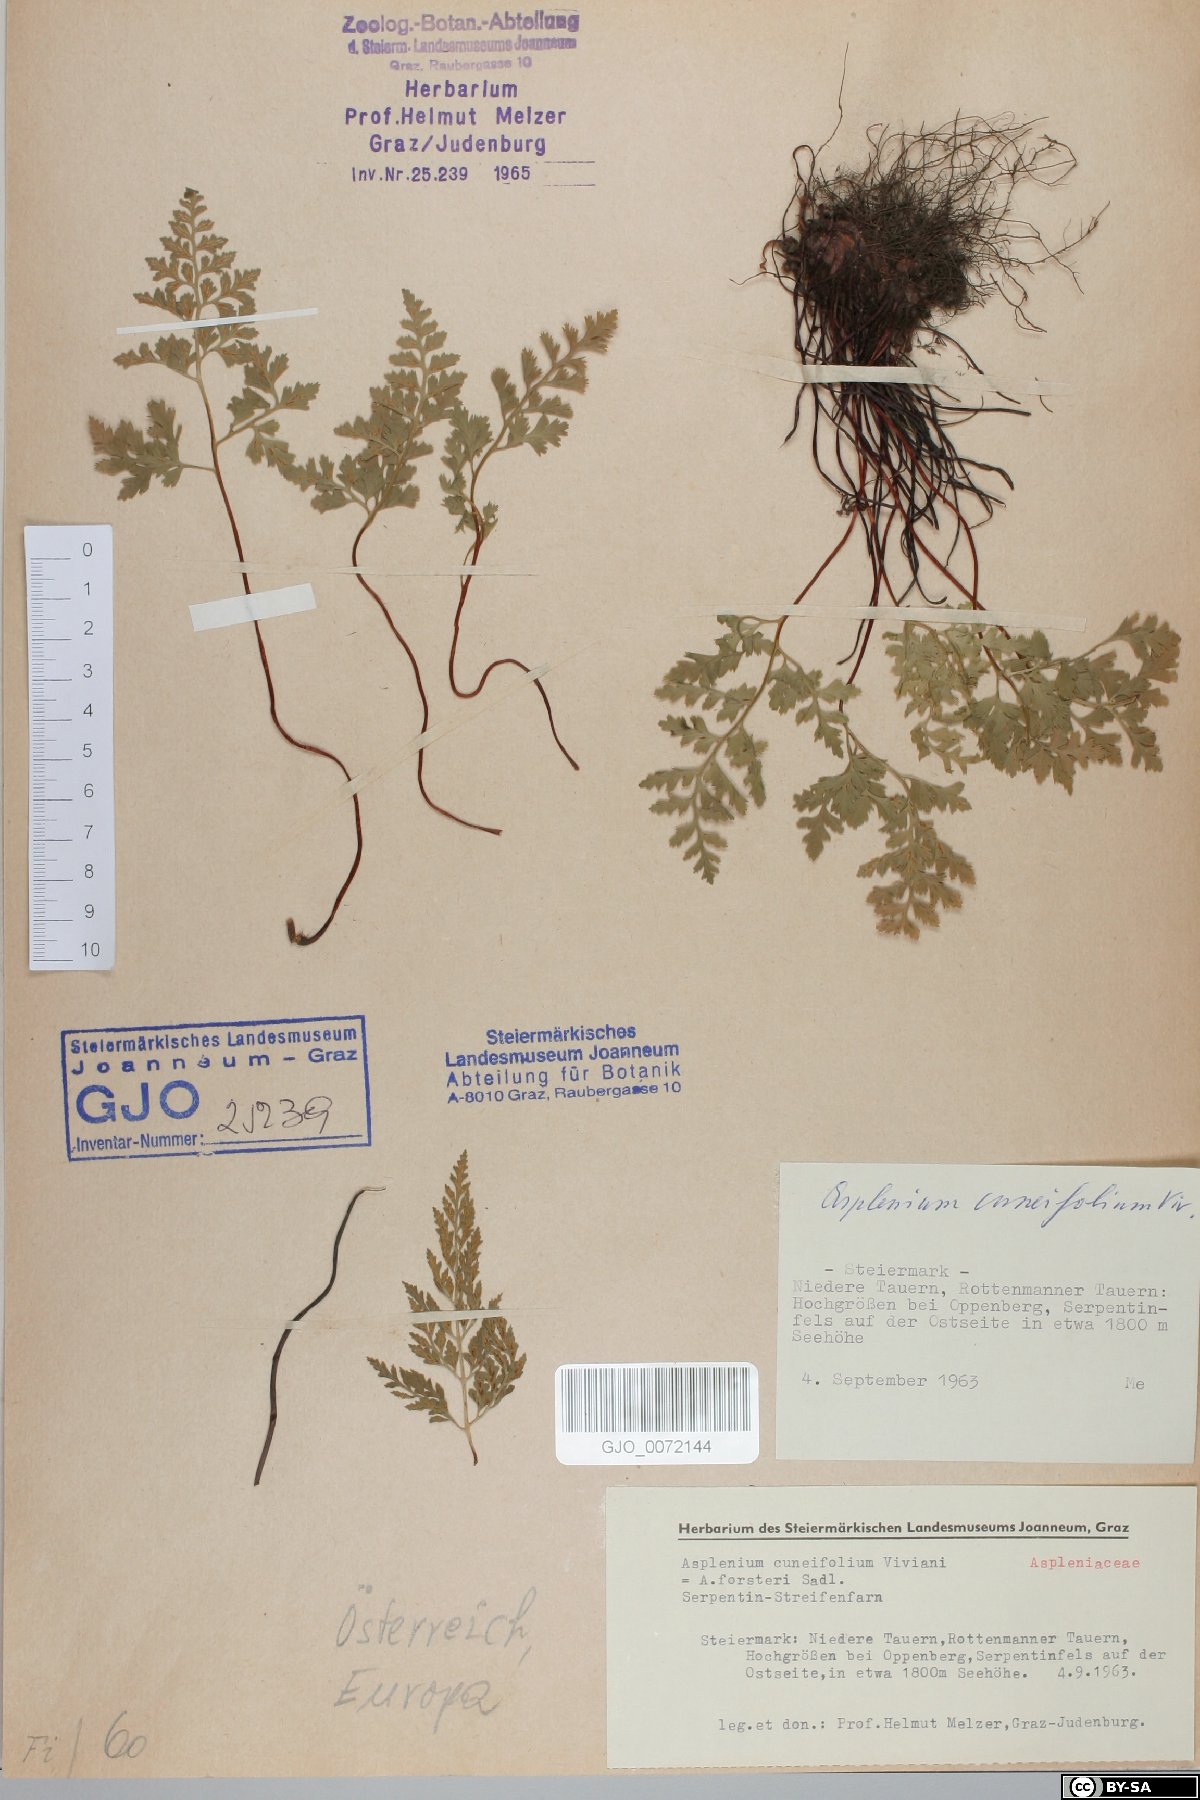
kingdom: Plantae
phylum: Tracheophyta
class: Polypodiopsida
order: Polypodiales
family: Aspleniaceae
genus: Asplenium
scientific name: Asplenium cuneifolium
